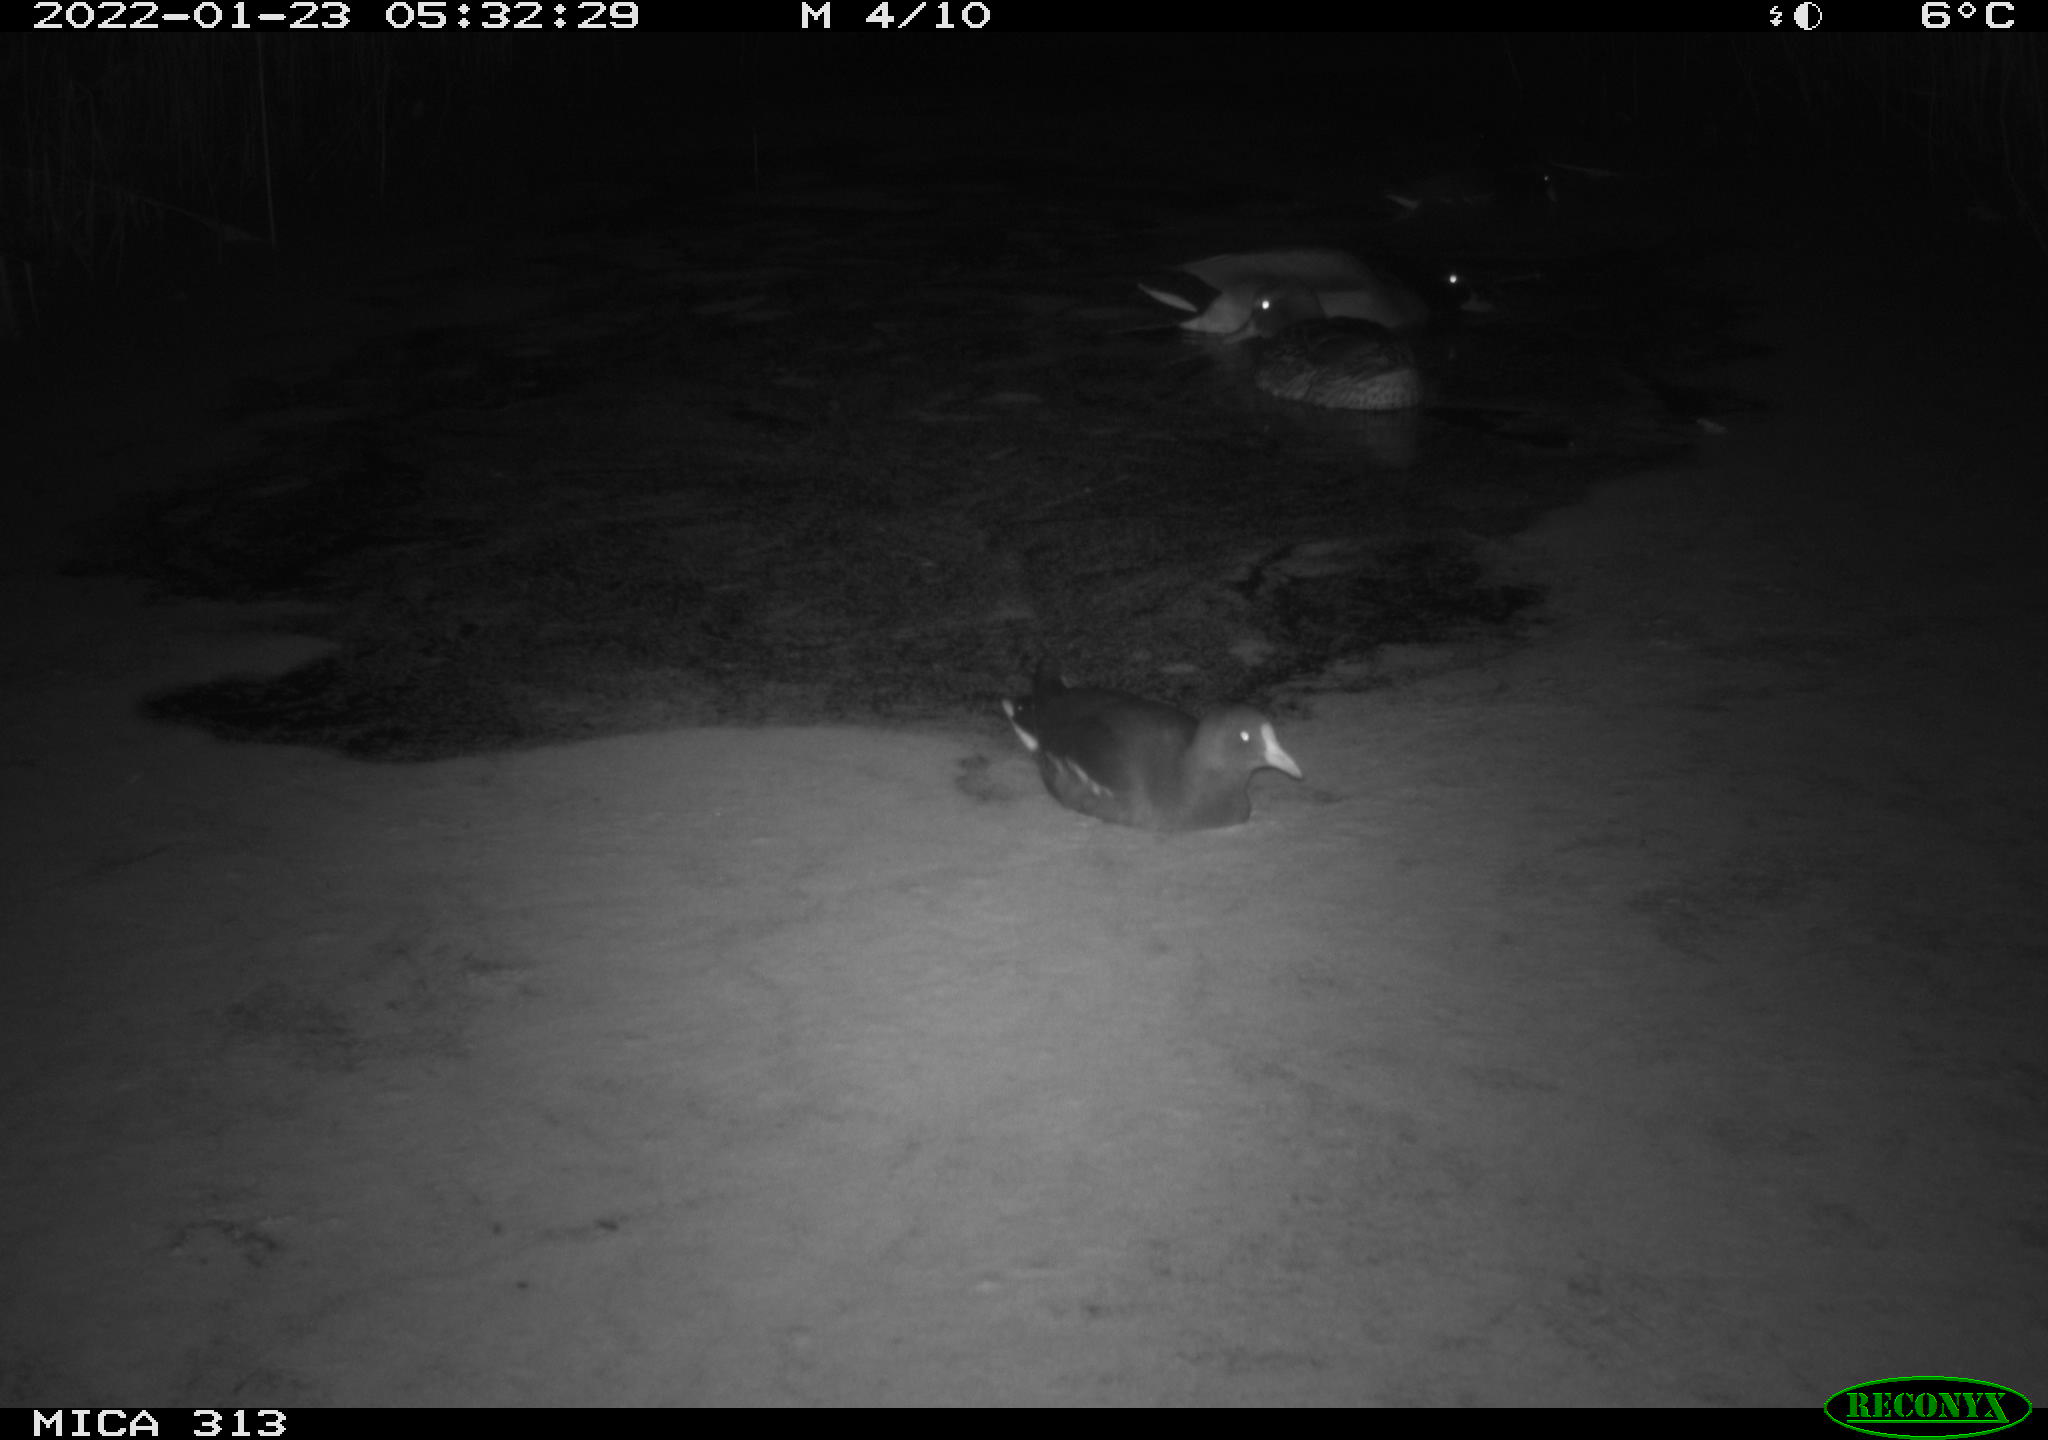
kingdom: Animalia
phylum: Chordata
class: Aves
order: Anseriformes
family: Anatidae
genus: Anas
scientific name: Anas platyrhynchos
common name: Mallard
